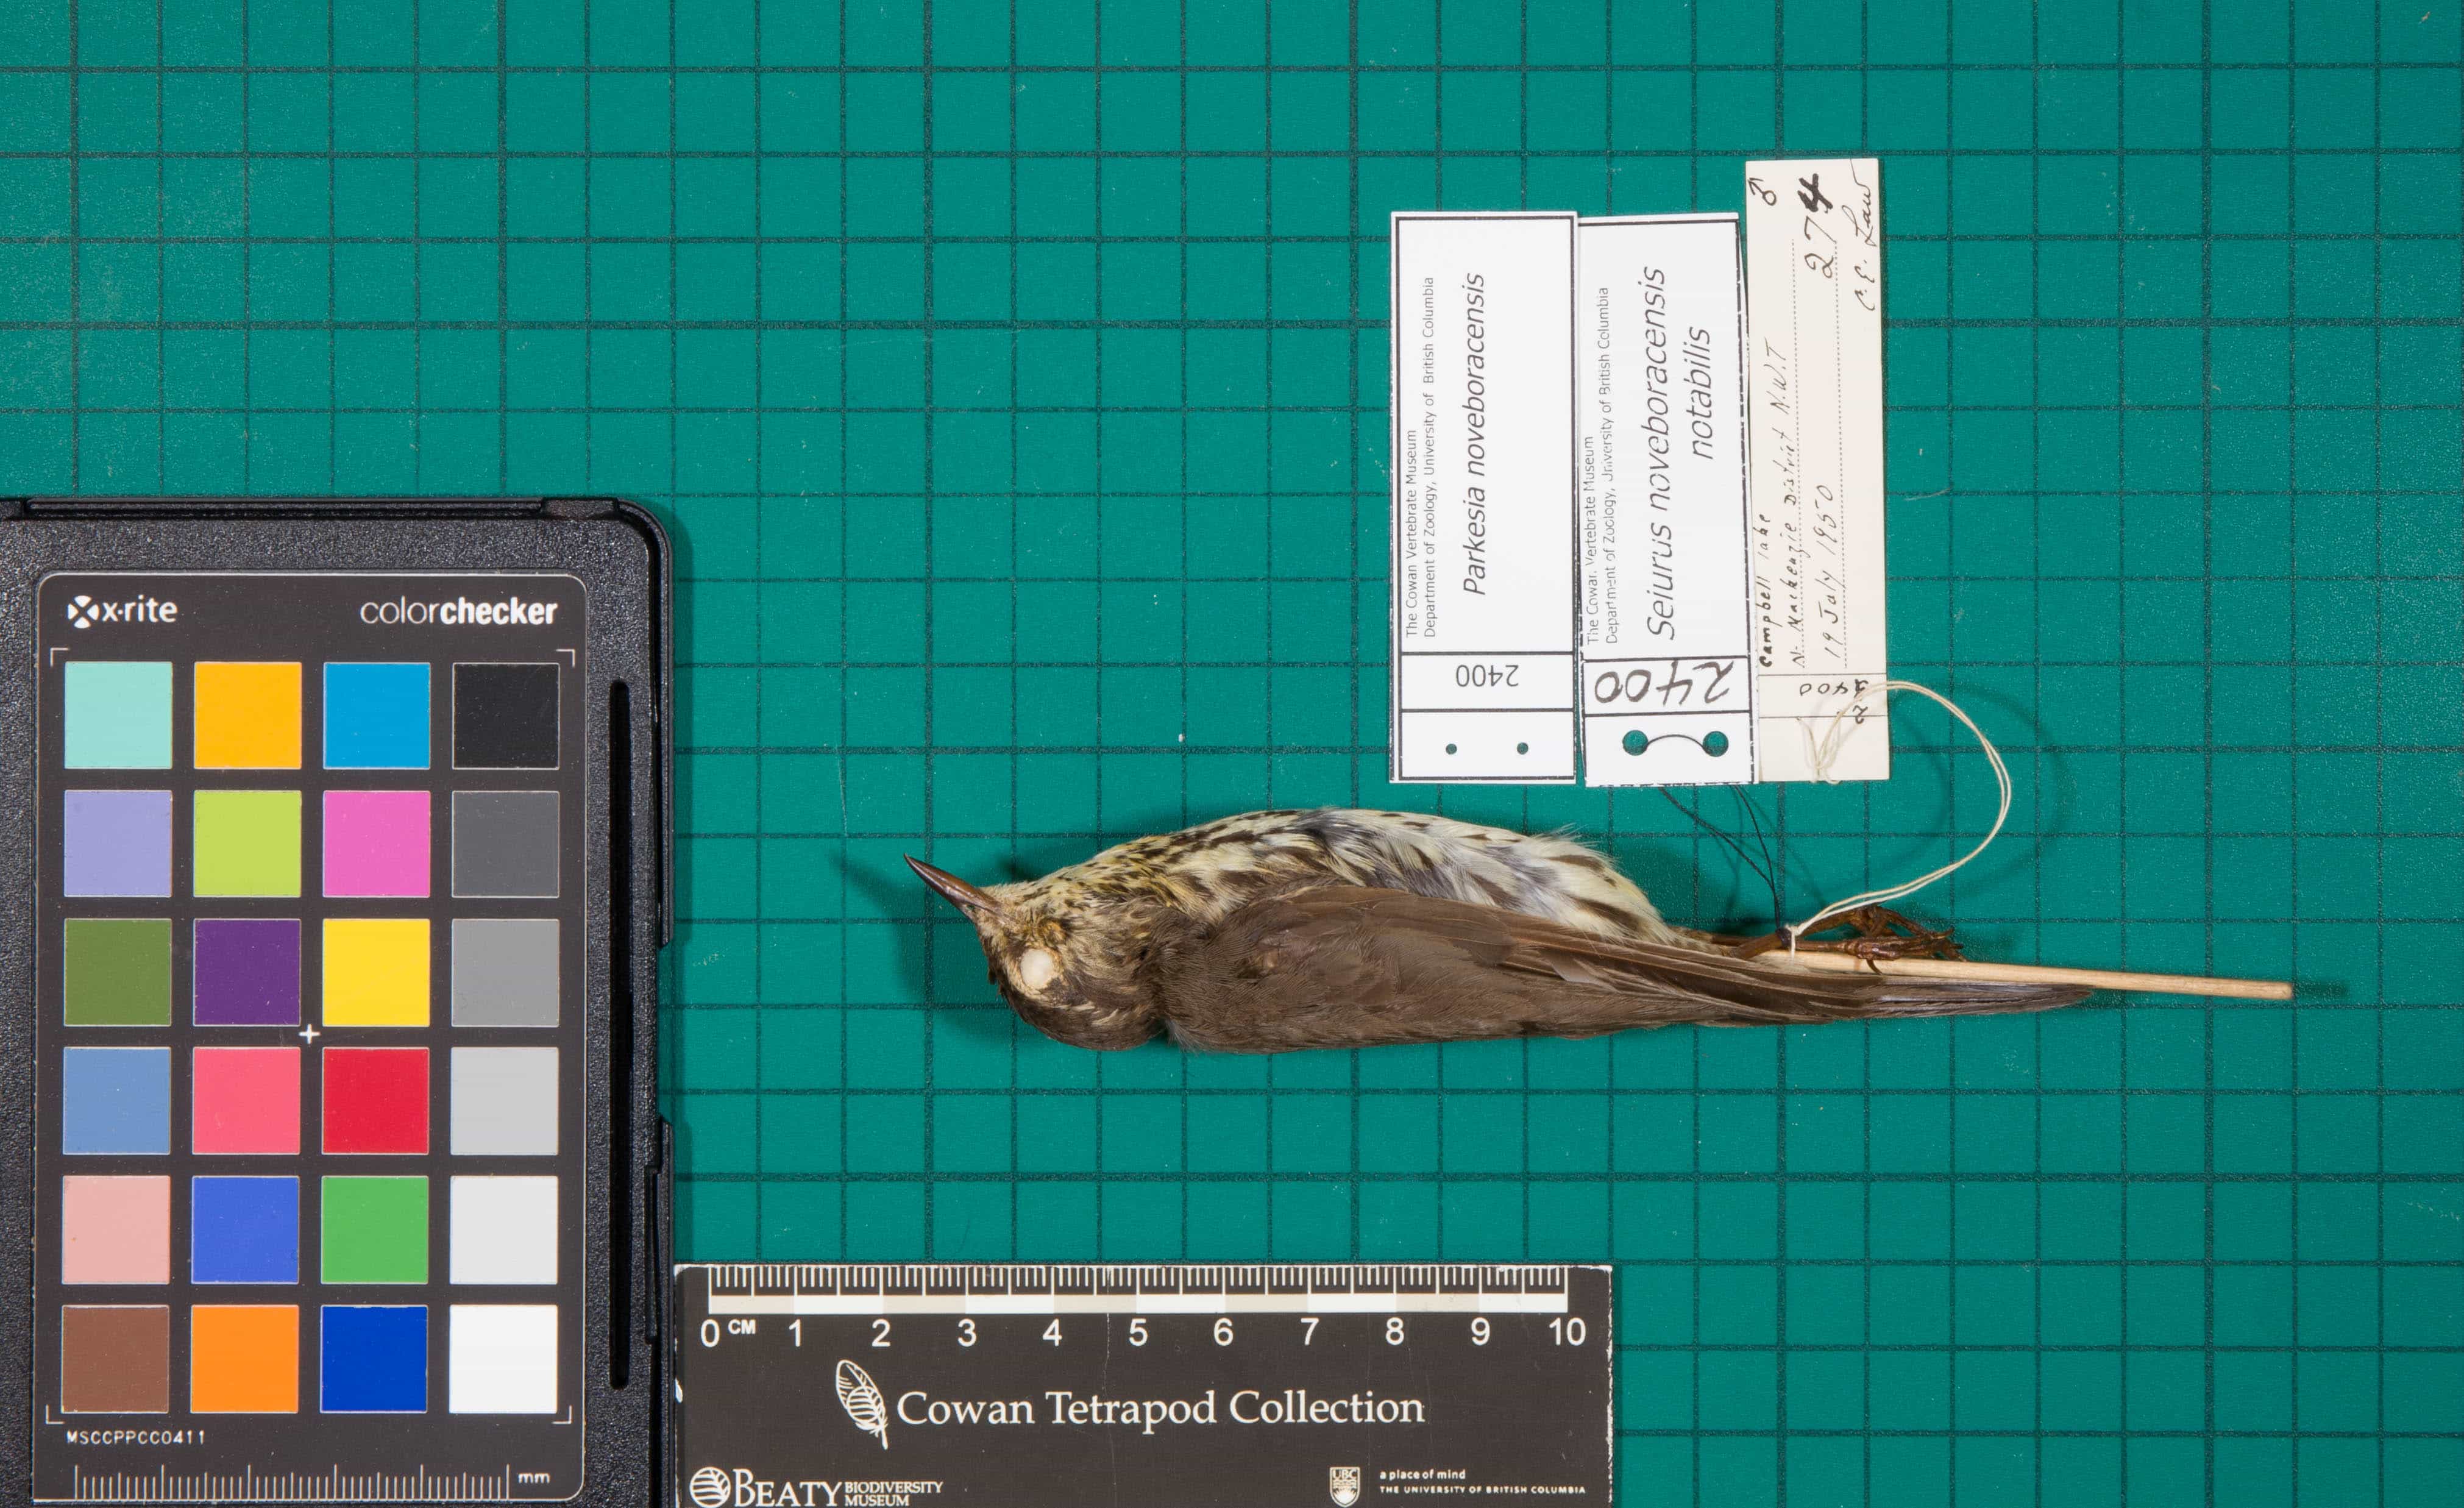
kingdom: Animalia
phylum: Chordata
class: Aves
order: Passeriformes
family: Parulidae
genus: Parkesia
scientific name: Parkesia noveboracensis
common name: Northern Waterthrush
